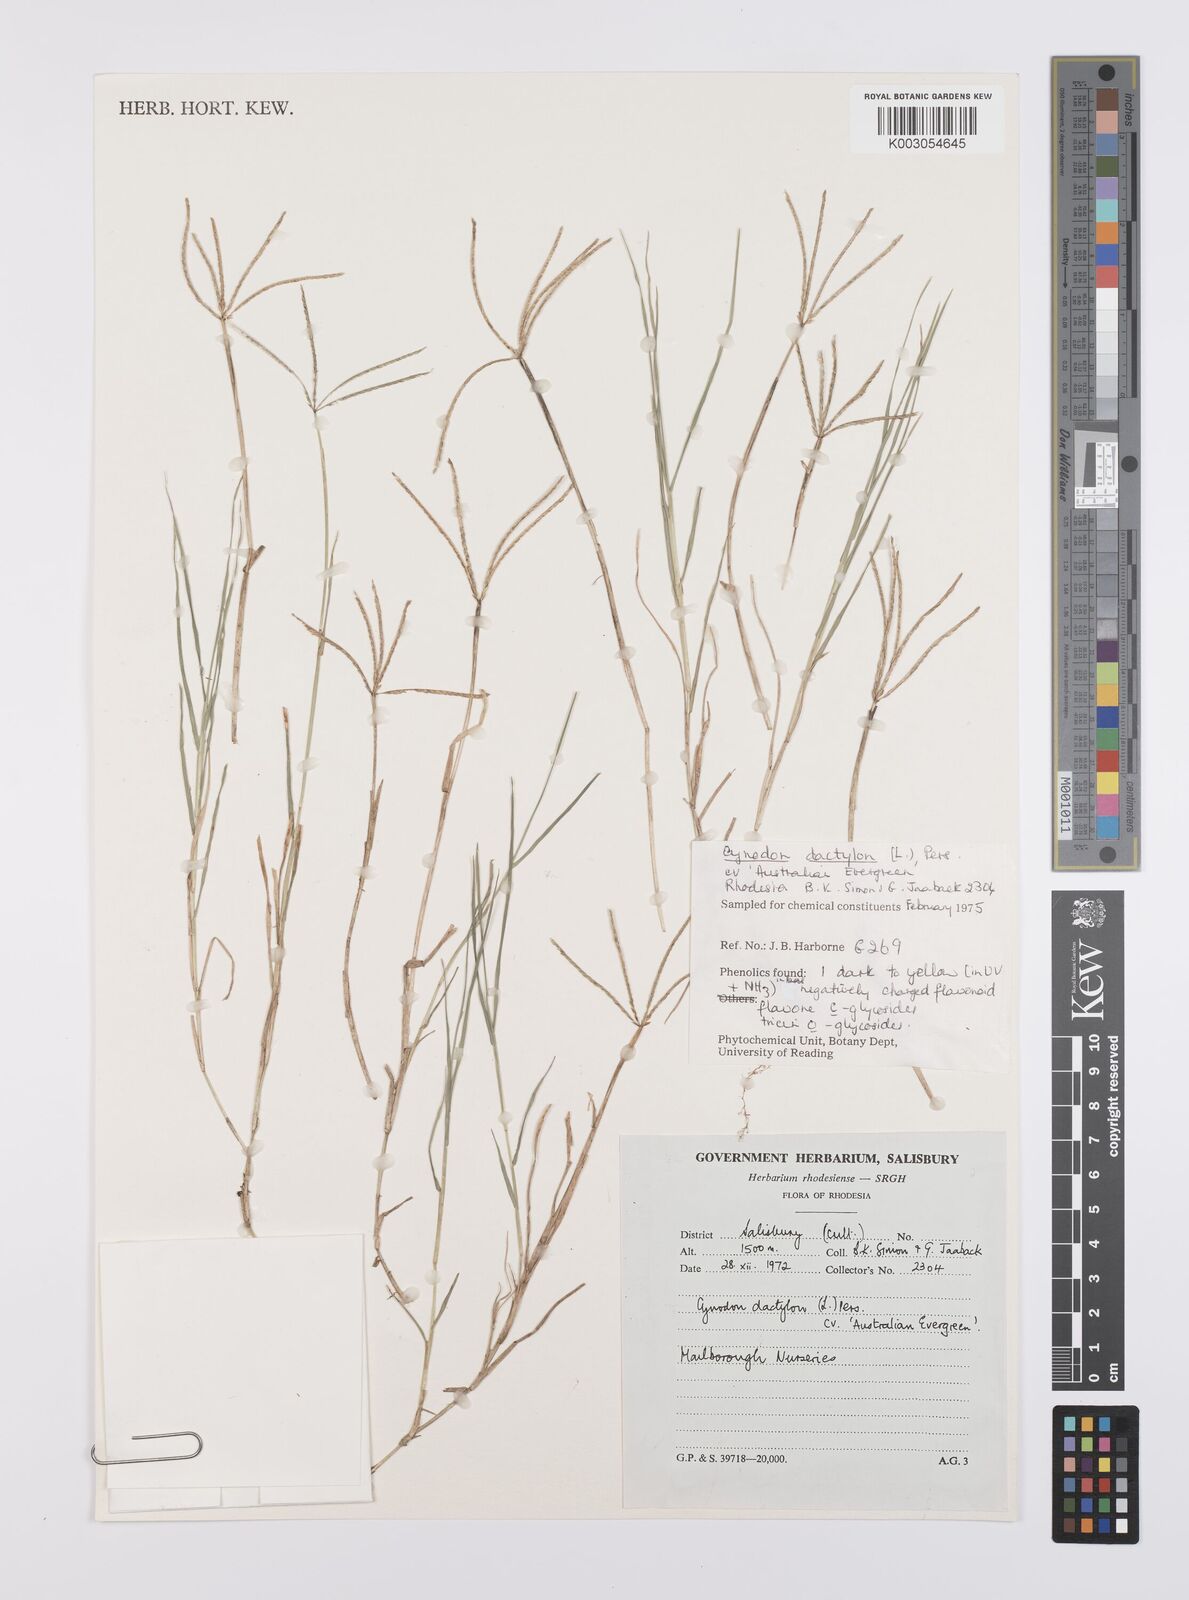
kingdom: Plantae
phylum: Tracheophyta
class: Liliopsida
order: Poales
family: Poaceae
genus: Cynodon
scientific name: Cynodon dactylon
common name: Bermuda grass
